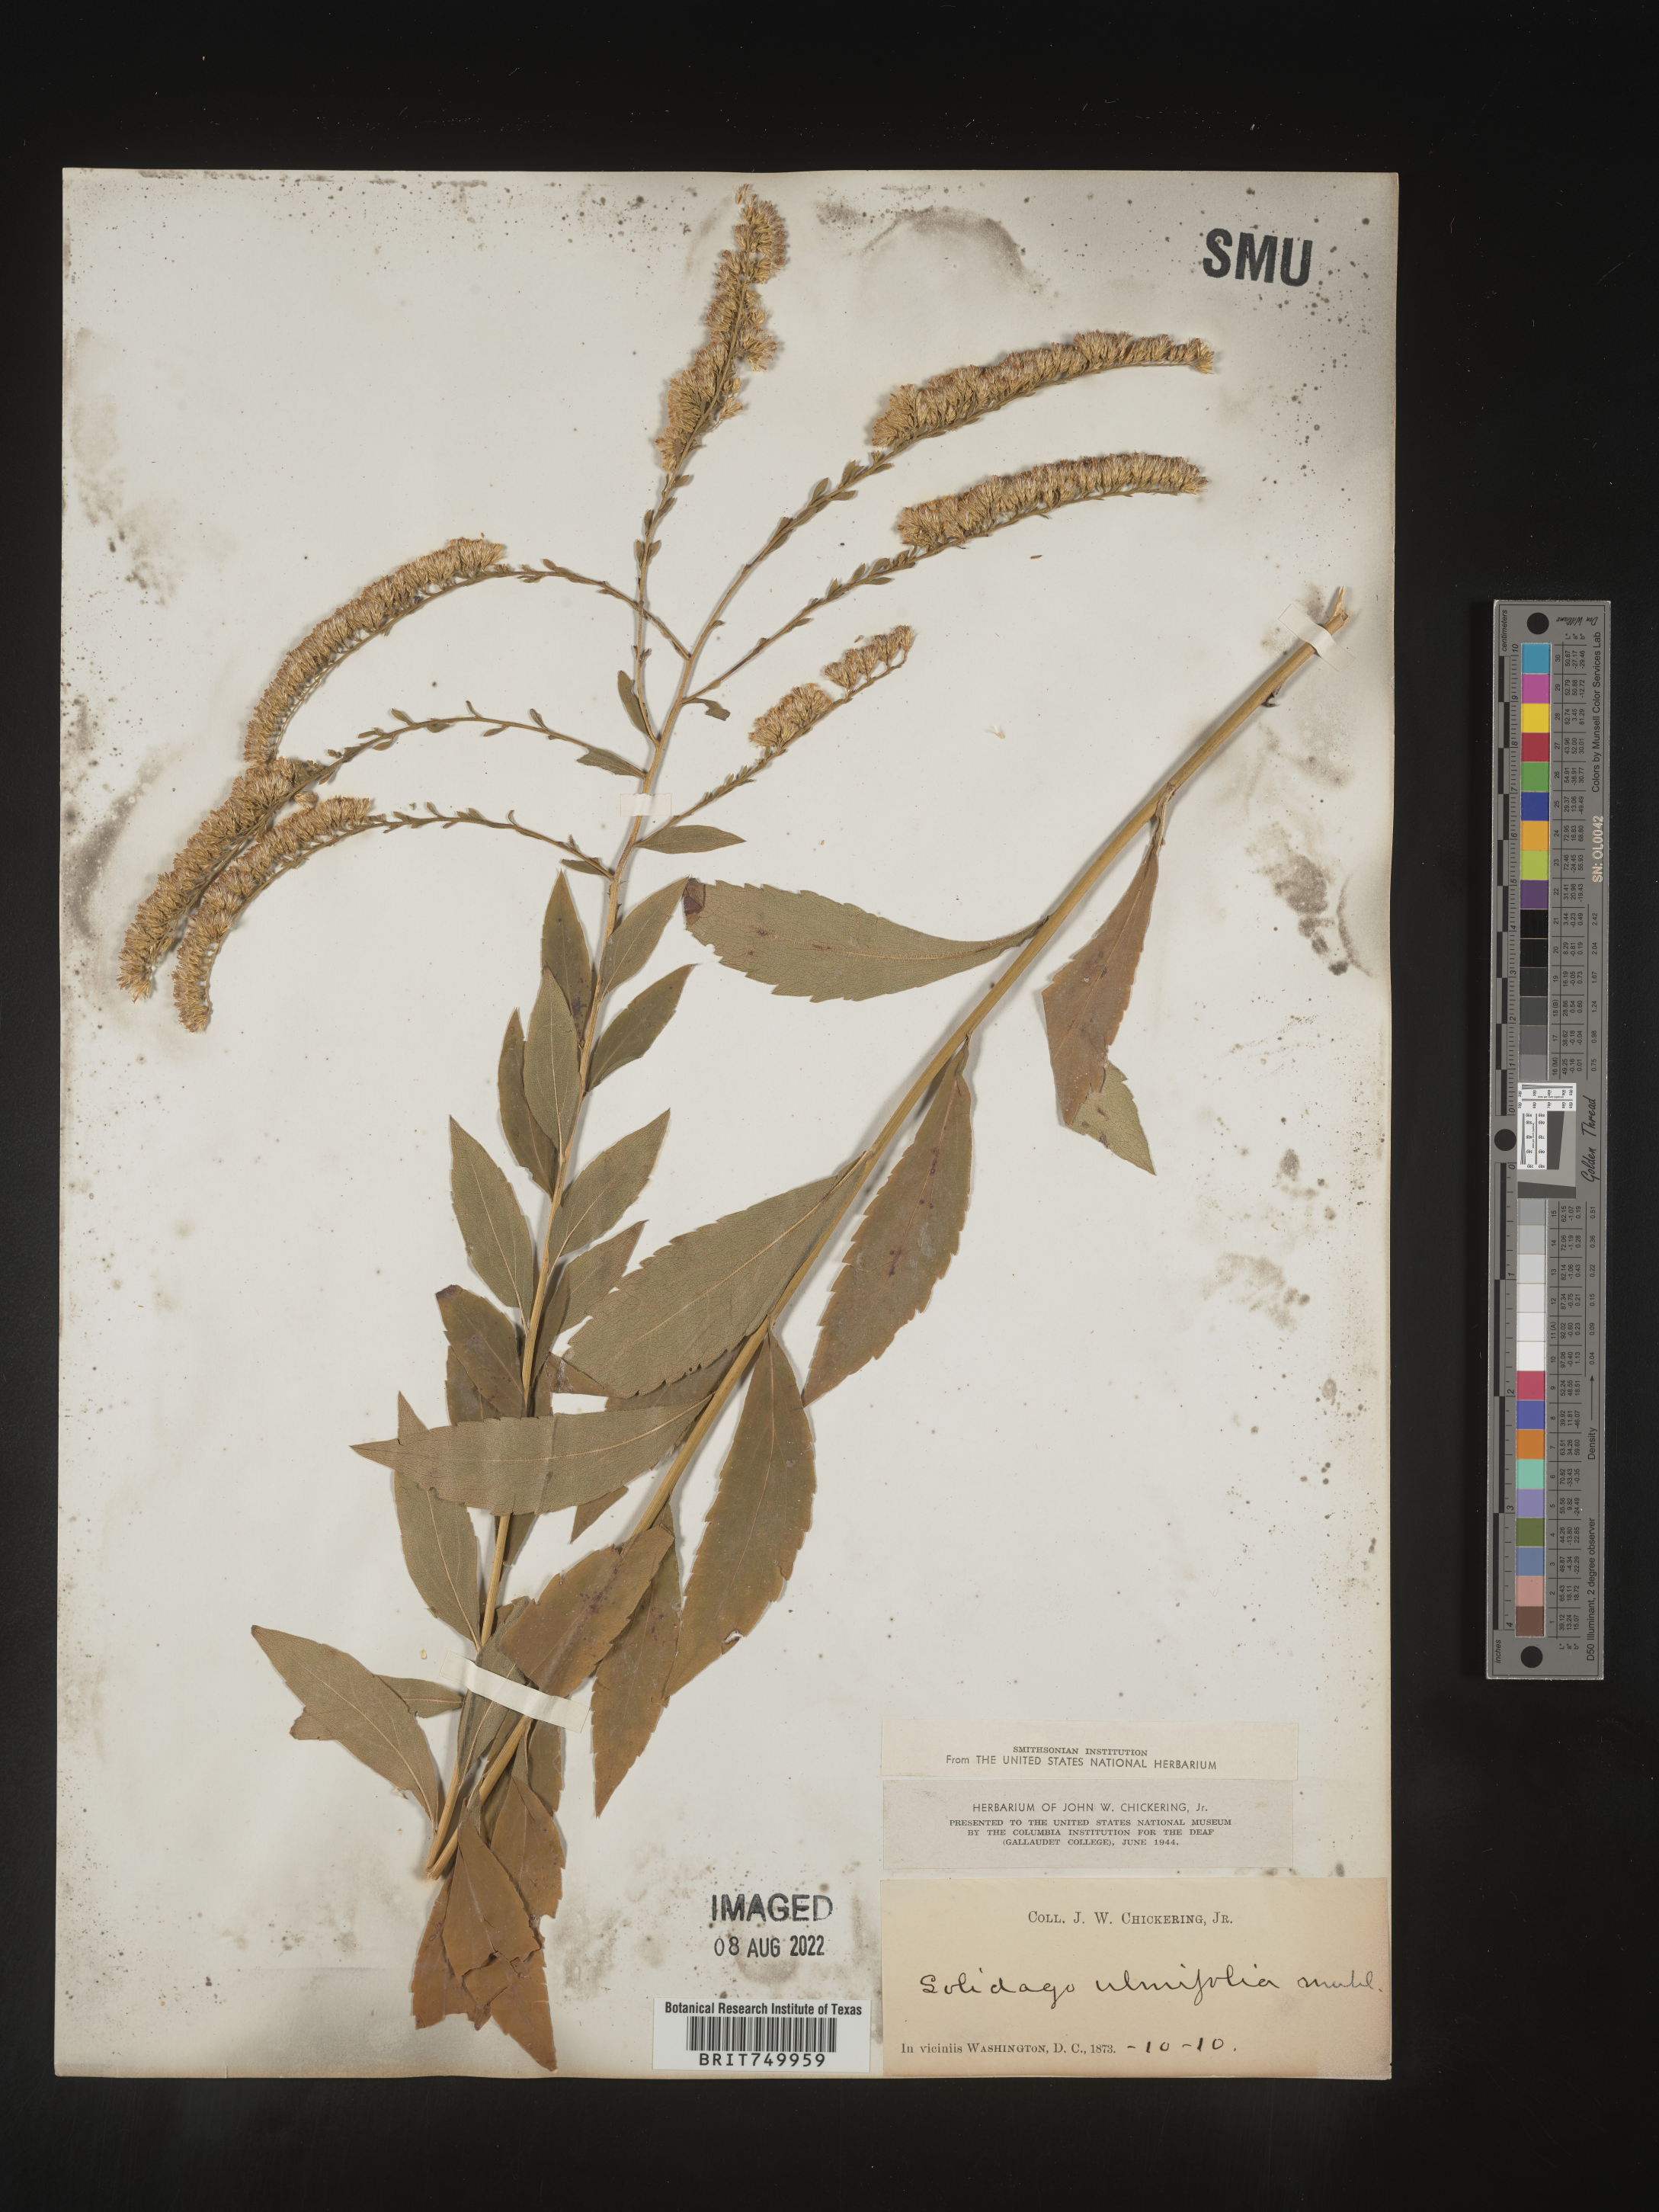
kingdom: Plantae
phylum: Tracheophyta
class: Magnoliopsida
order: Asterales
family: Asteraceae
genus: Solidago
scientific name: Solidago ulmifolia
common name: Elm-leaf goldenrod
